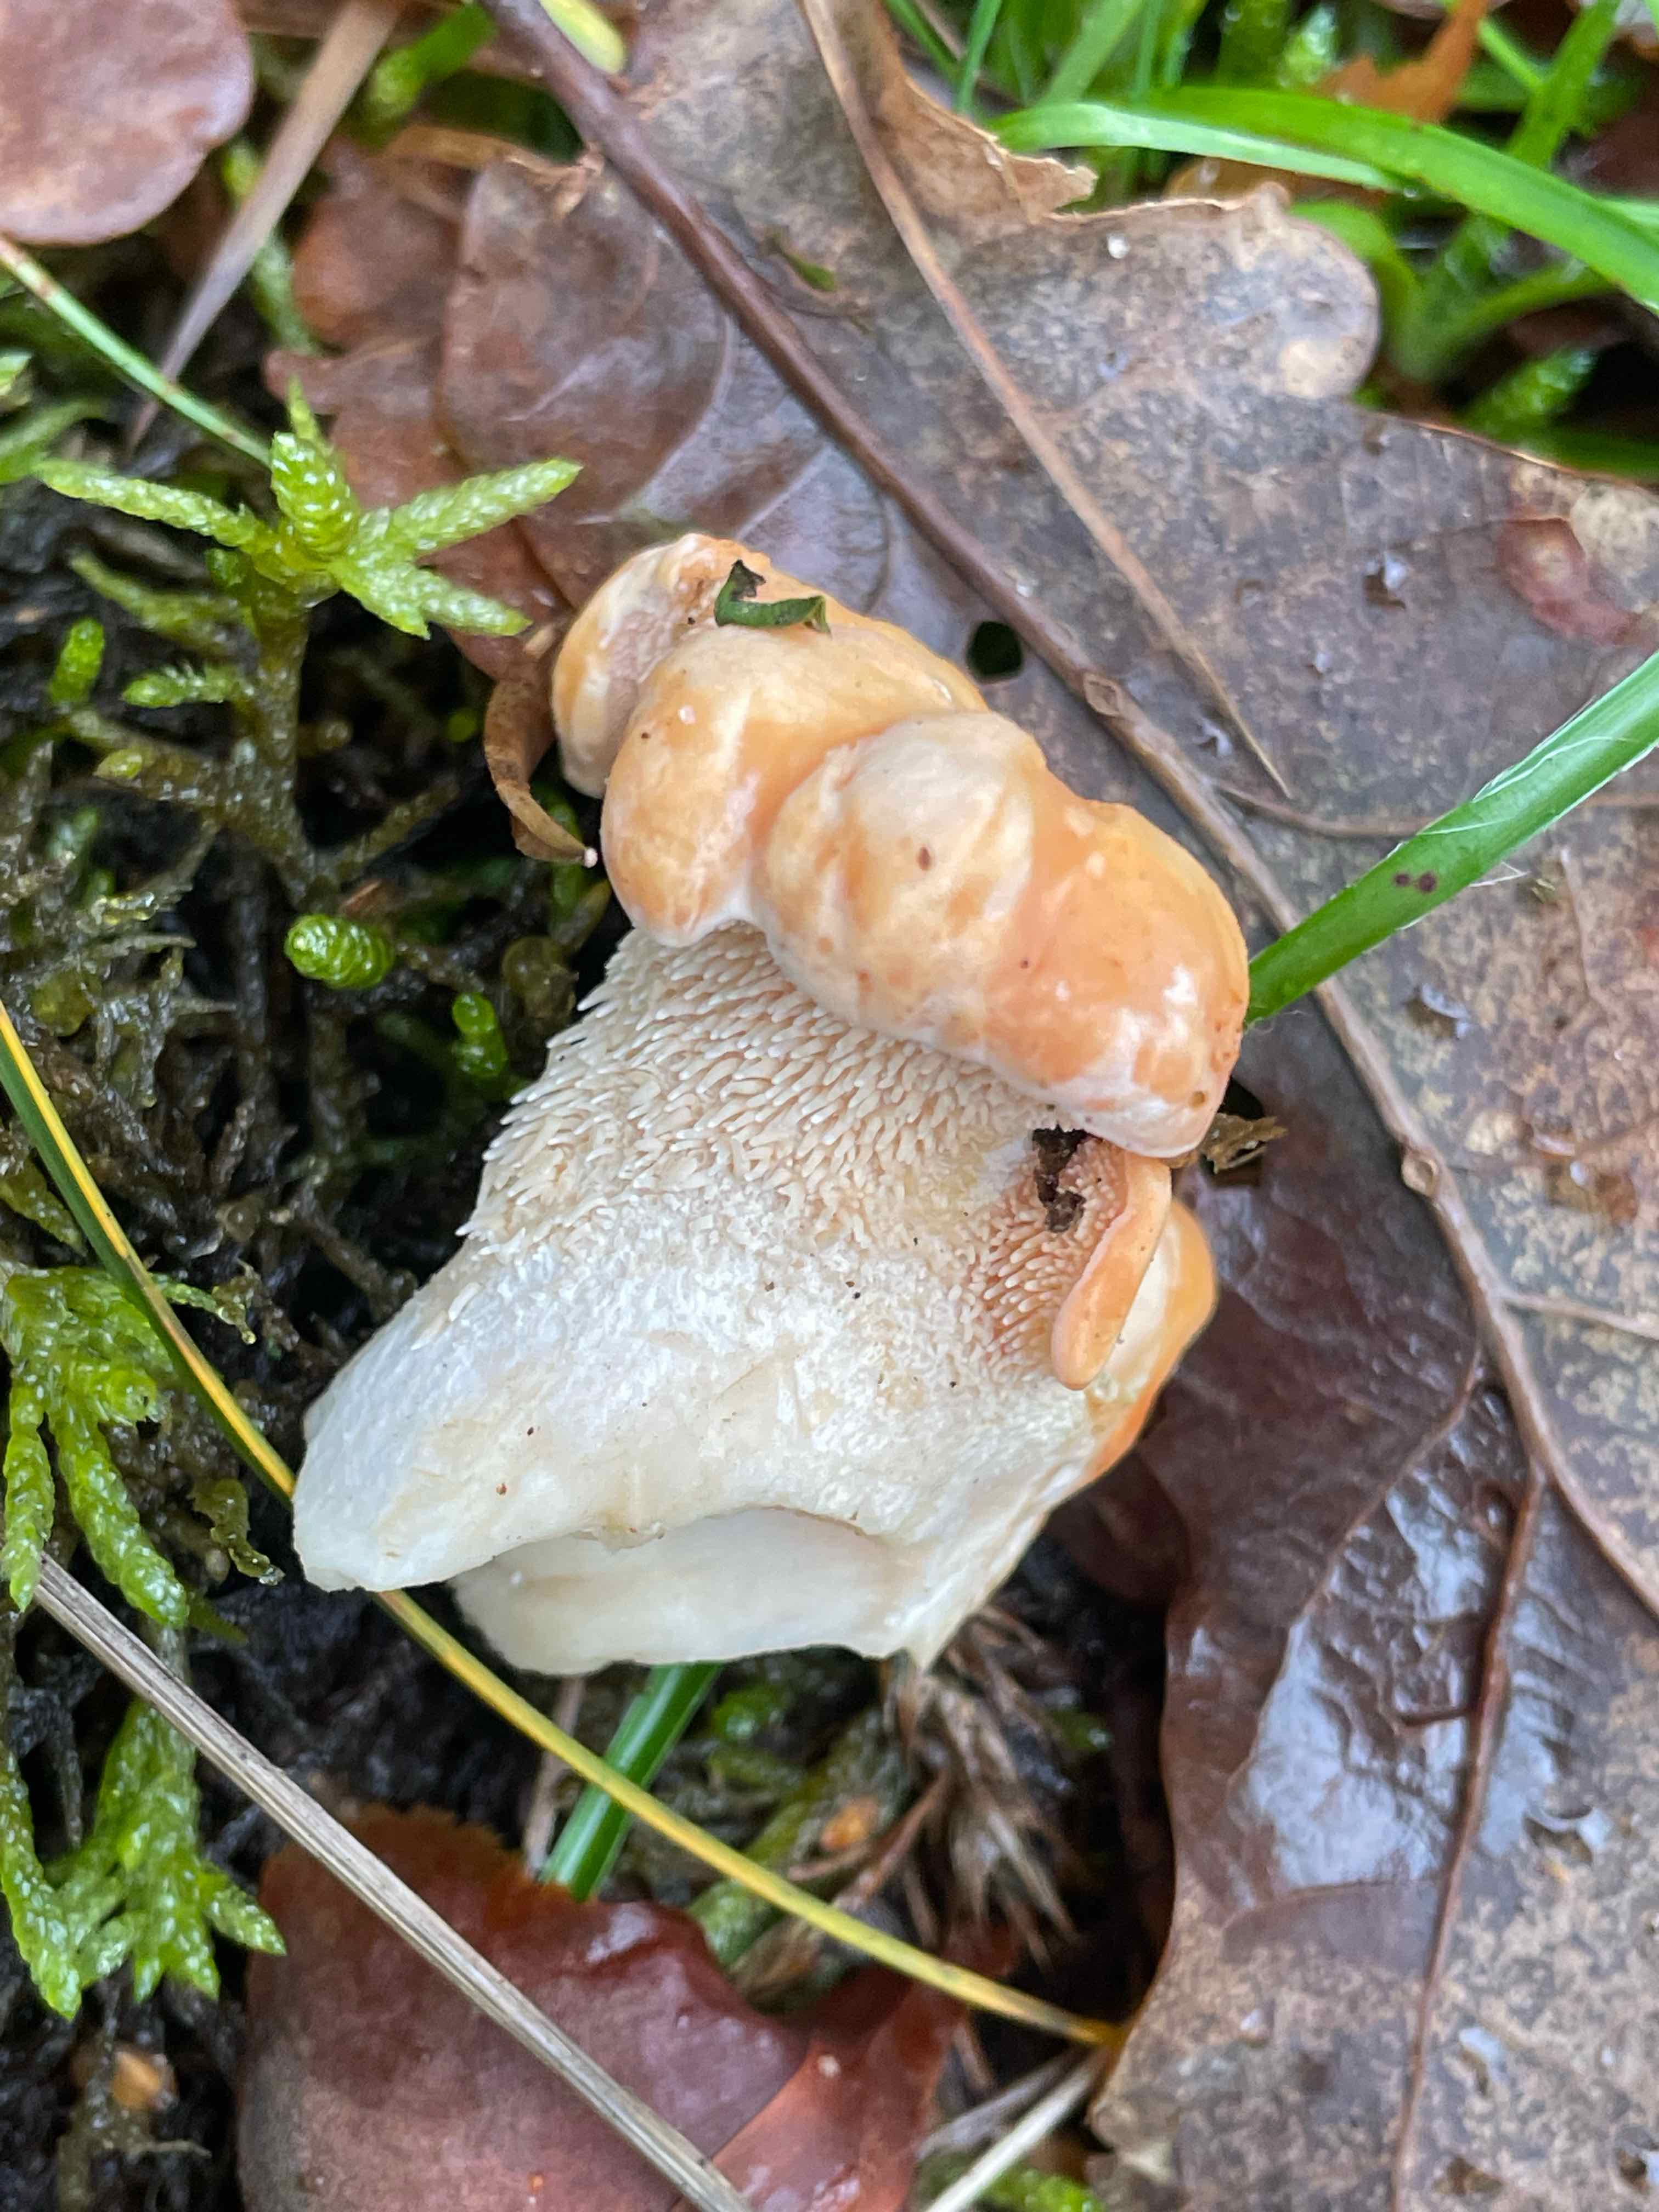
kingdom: Fungi
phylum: Basidiomycota
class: Agaricomycetes
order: Cantharellales
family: Hydnaceae
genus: Hydnum
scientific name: Hydnum
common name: pigsvamp
